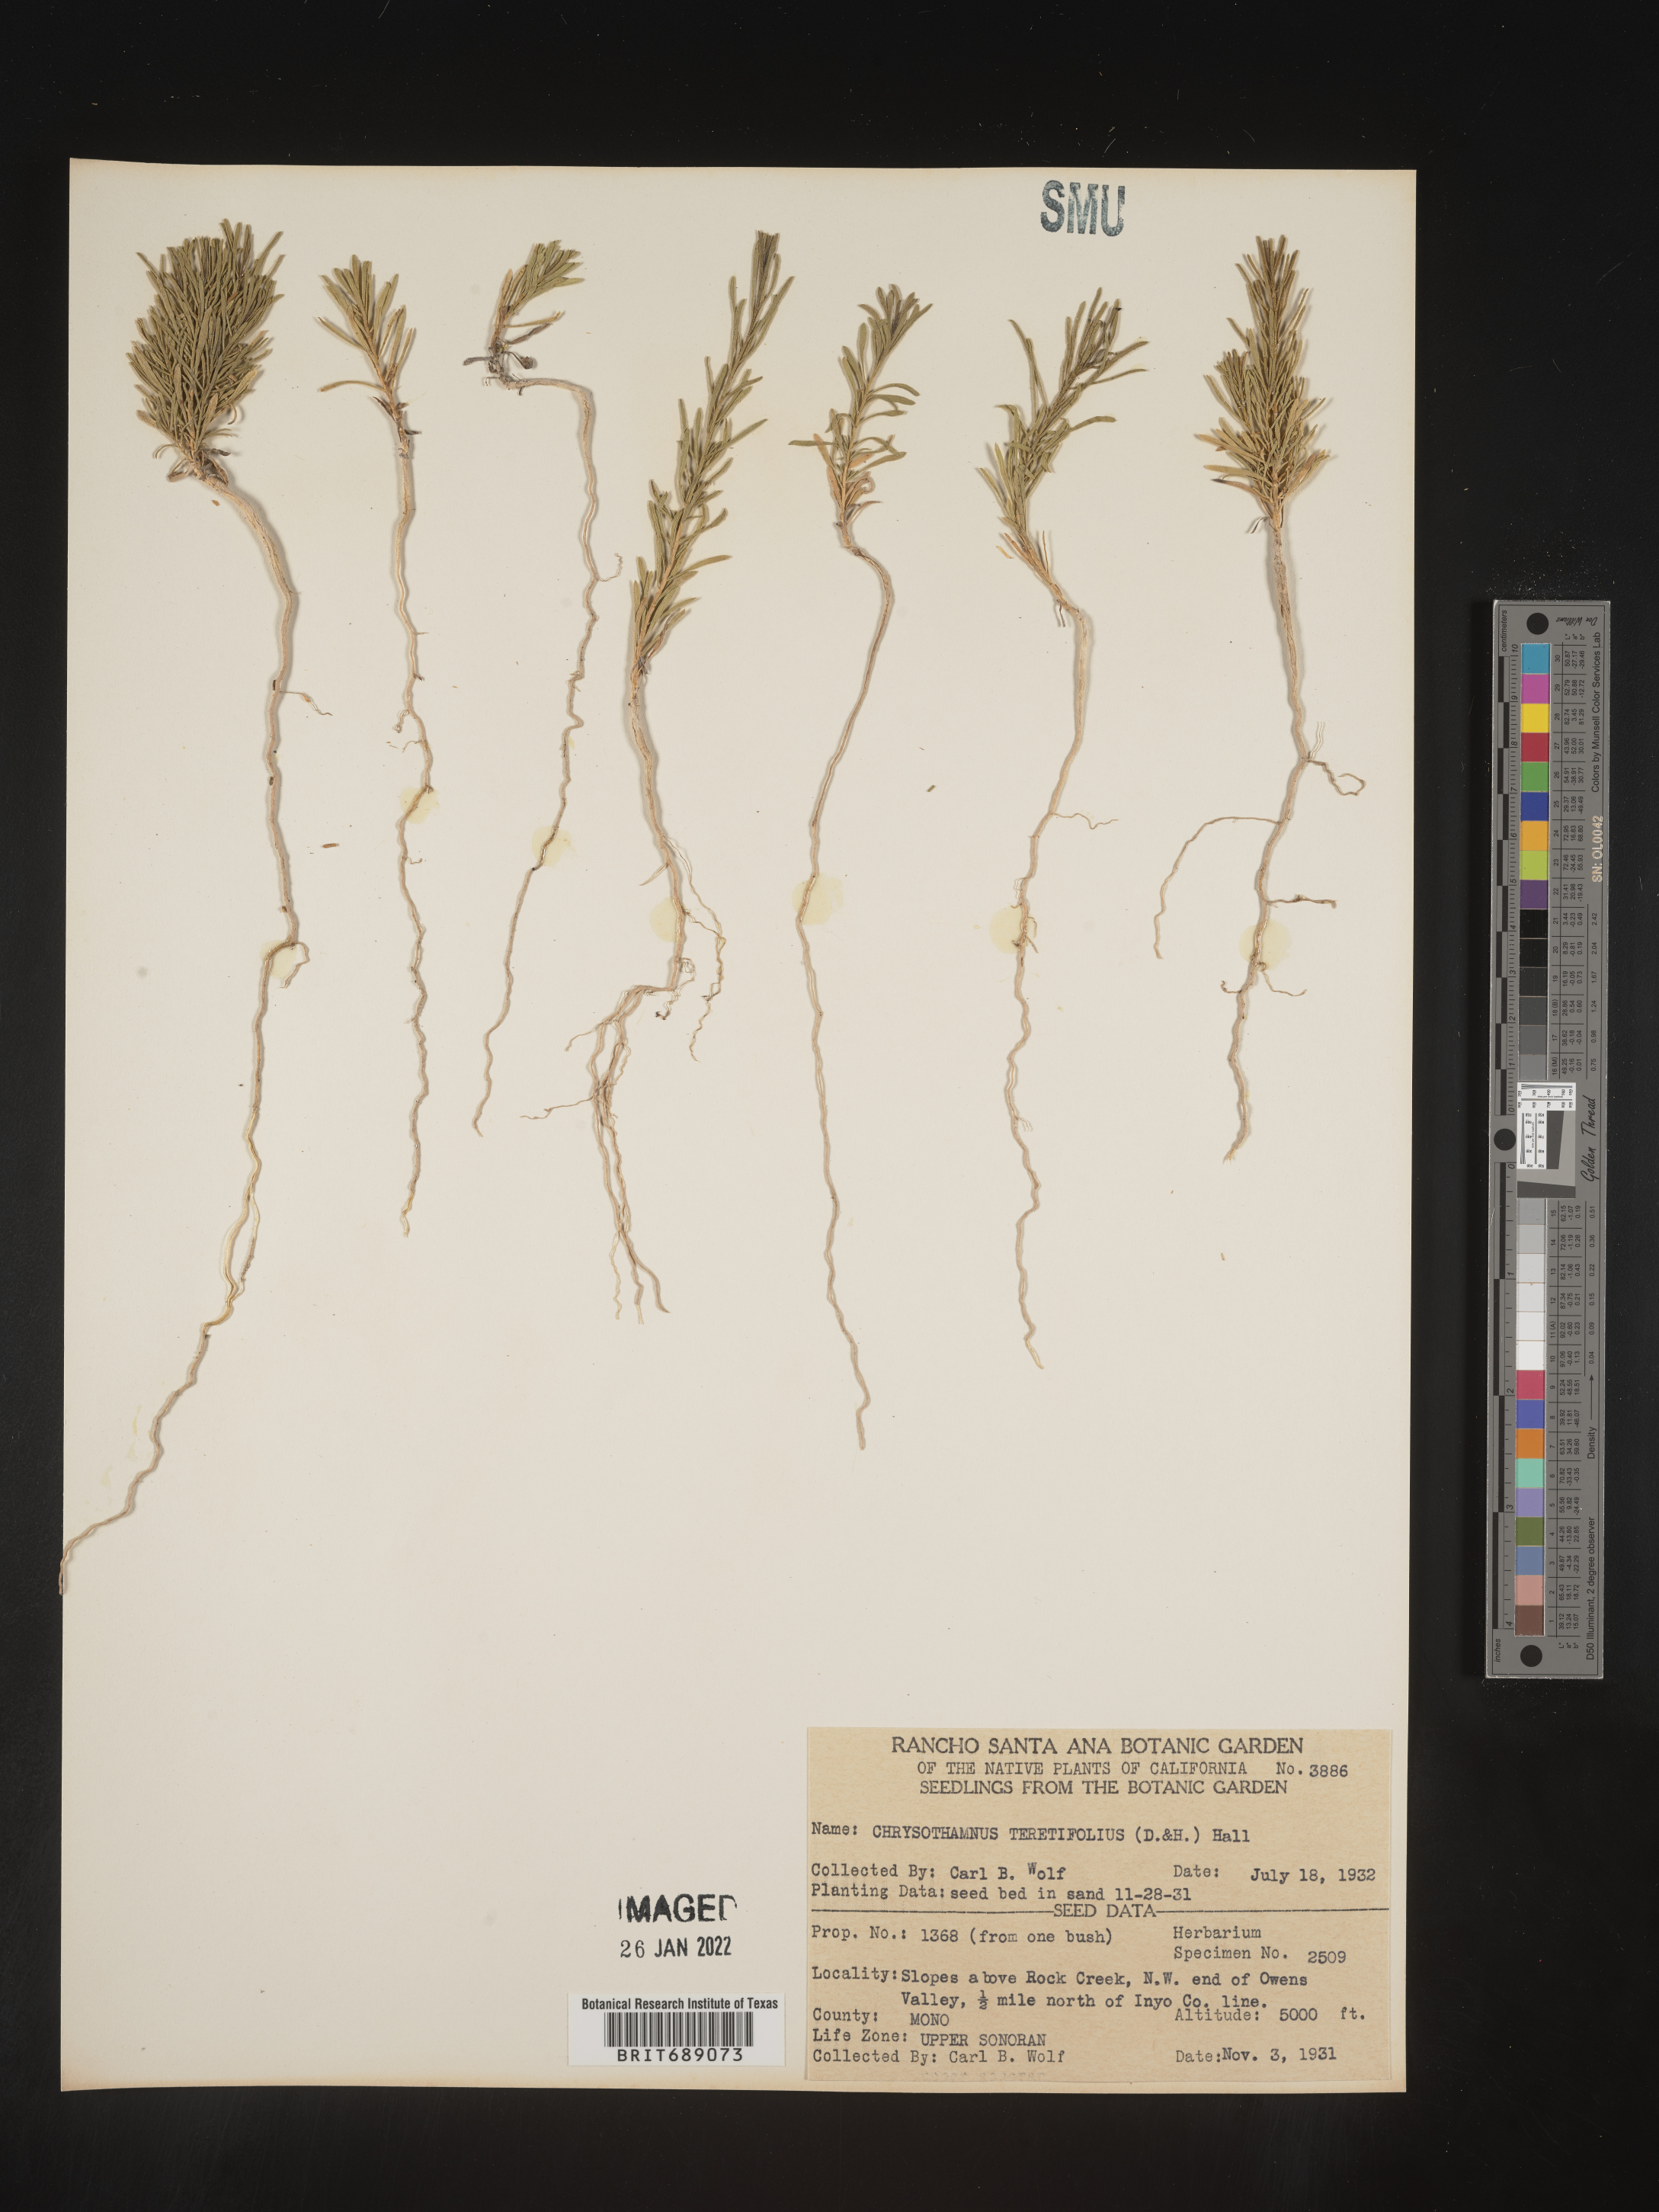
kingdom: Plantae
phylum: Tracheophyta
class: Magnoliopsida
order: Asterales
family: Asteraceae
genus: Ericameria
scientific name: Ericameria teretifolia
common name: Round-leaf rabbitbrush
